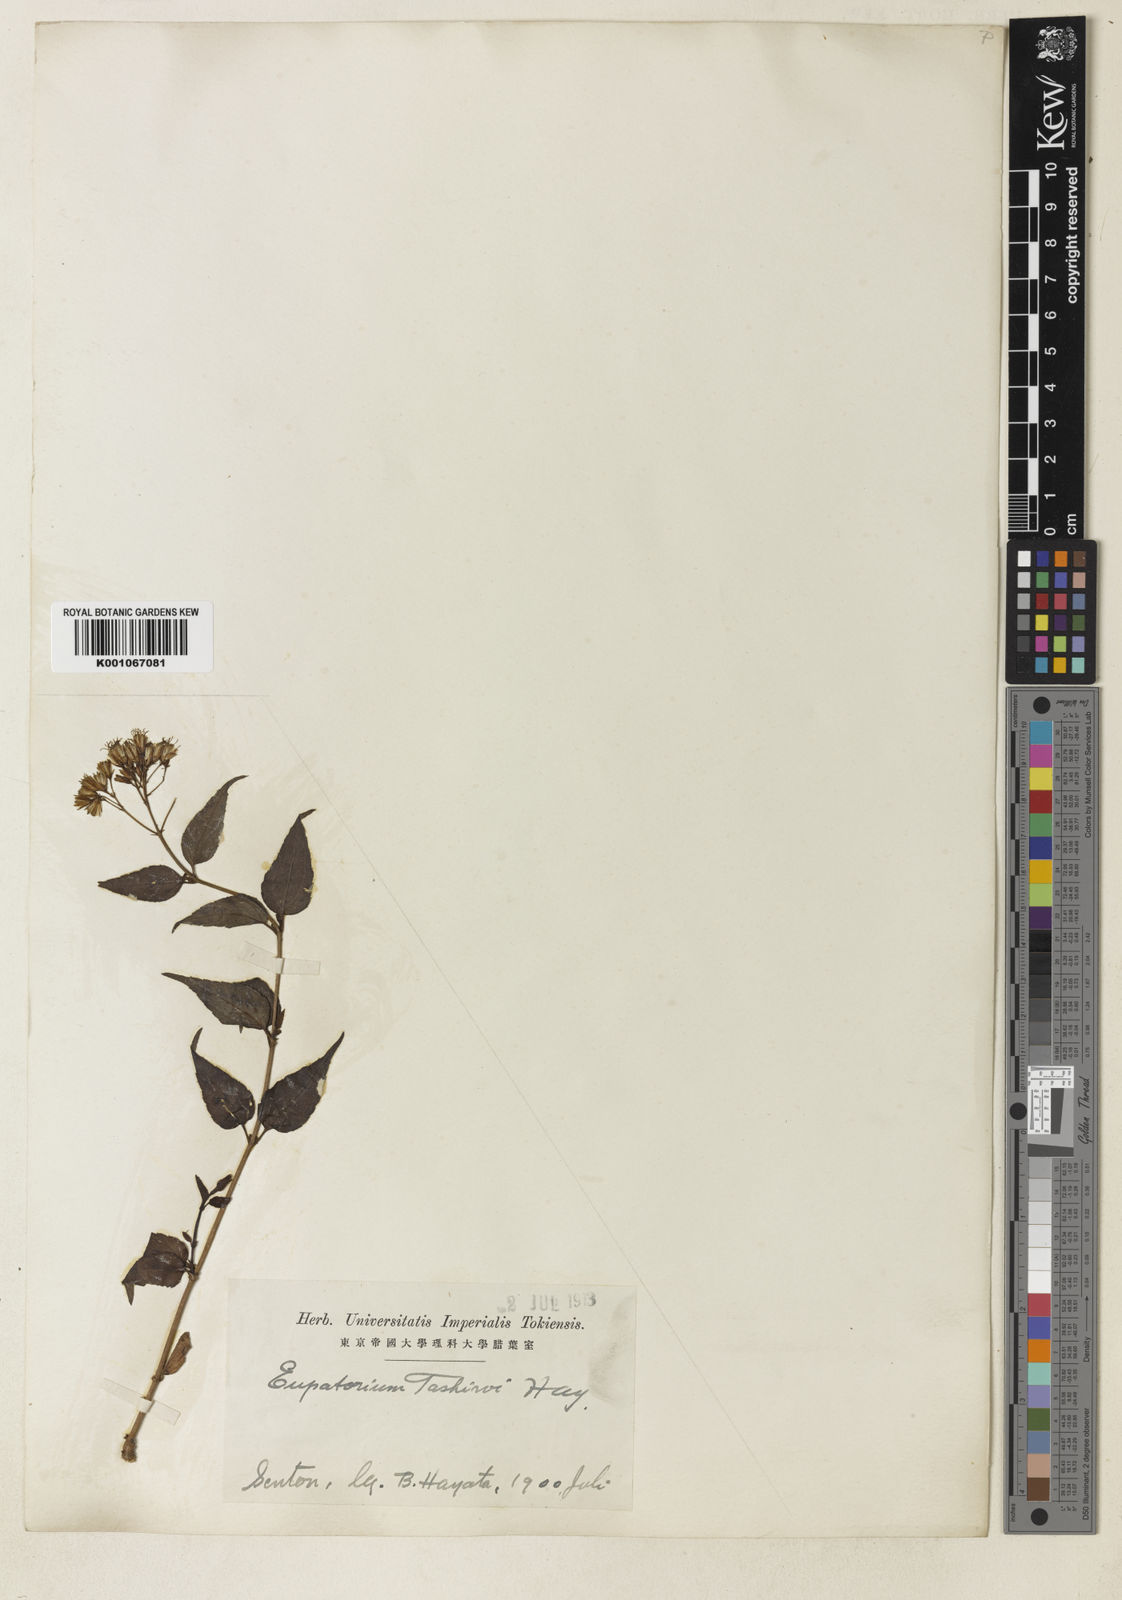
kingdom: Plantae
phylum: Tracheophyta
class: Magnoliopsida
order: Asterales
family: Asteraceae
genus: Eupatorium
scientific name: Eupatorium tashiroi
